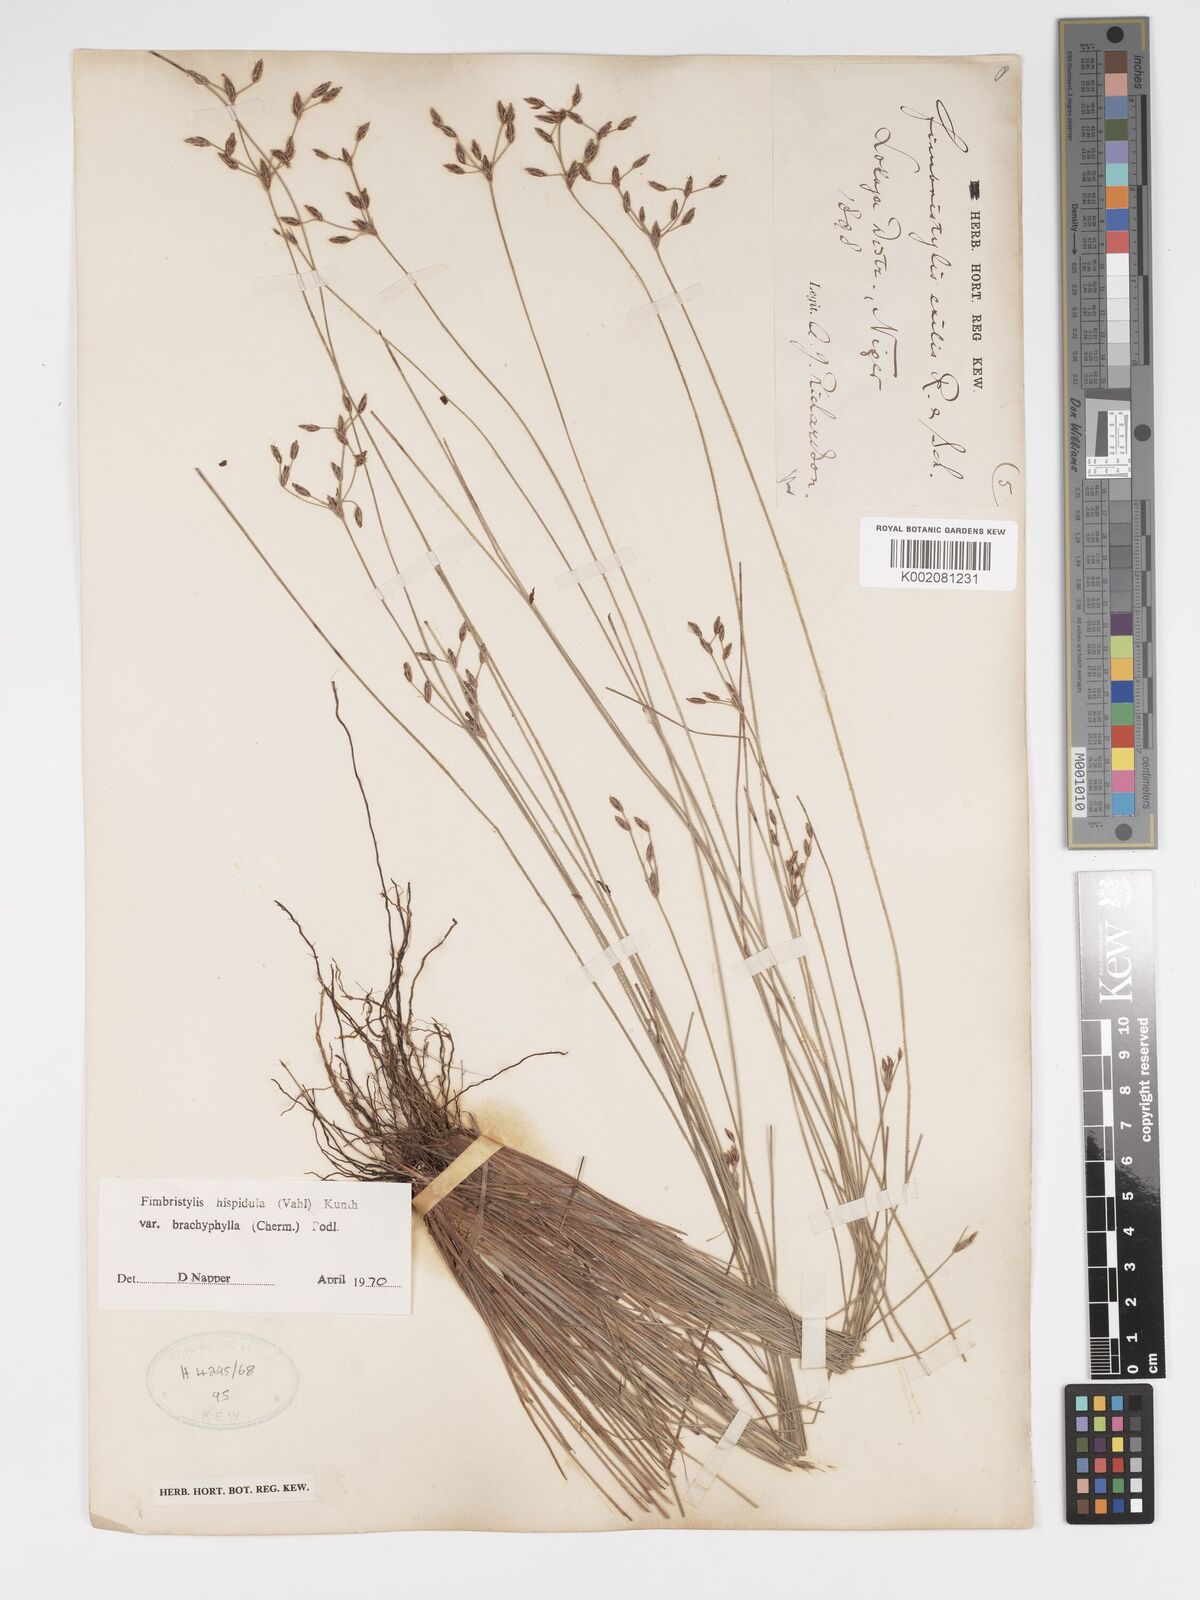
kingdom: Plantae
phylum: Tracheophyta
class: Liliopsida
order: Poales
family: Cyperaceae
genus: Bulbostylis
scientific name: Bulbostylis hispidula
